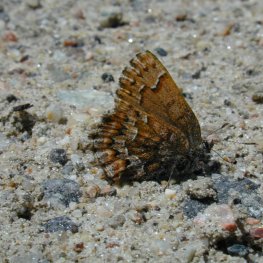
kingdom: Animalia
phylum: Arthropoda
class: Insecta
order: Lepidoptera
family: Lycaenidae
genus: Incisalia
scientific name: Incisalia niphon
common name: Eastern Pine Elfin
